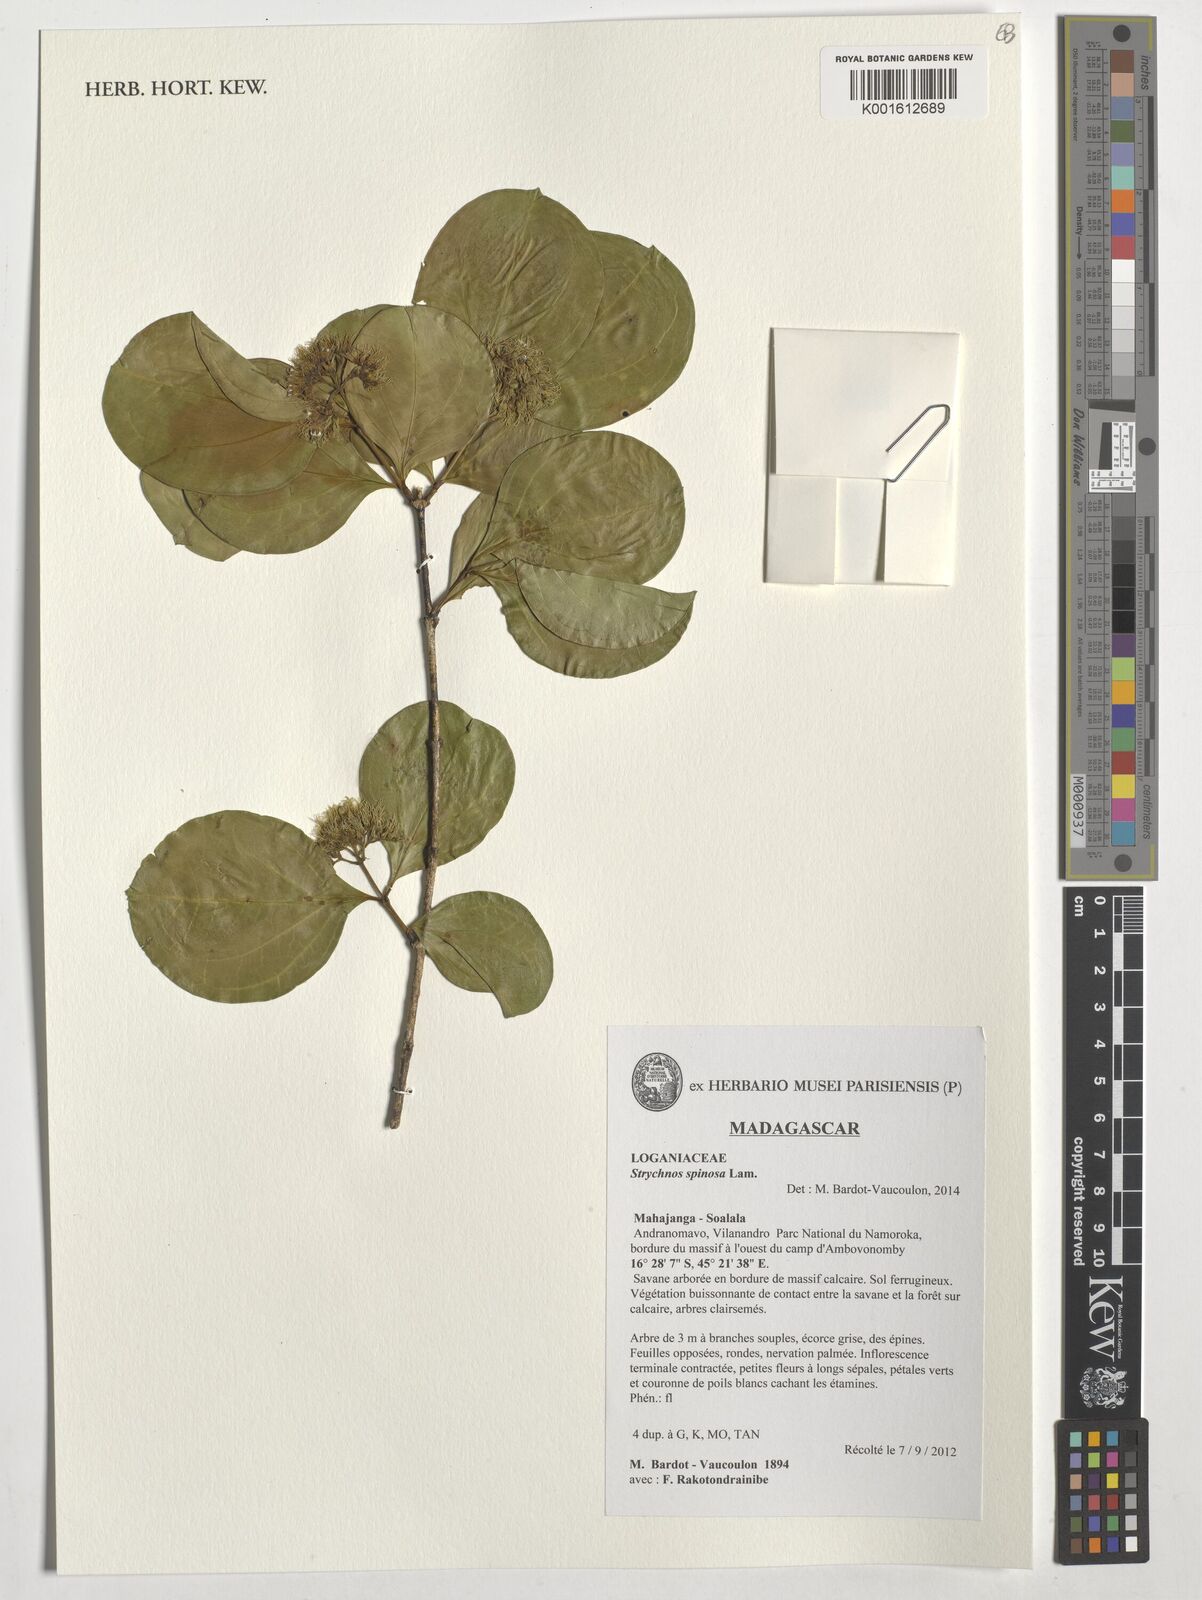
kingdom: Plantae
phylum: Tracheophyta
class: Magnoliopsida
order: Gentianales
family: Loganiaceae
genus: Strychnos
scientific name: Strychnos spinosa
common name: Natal orange
